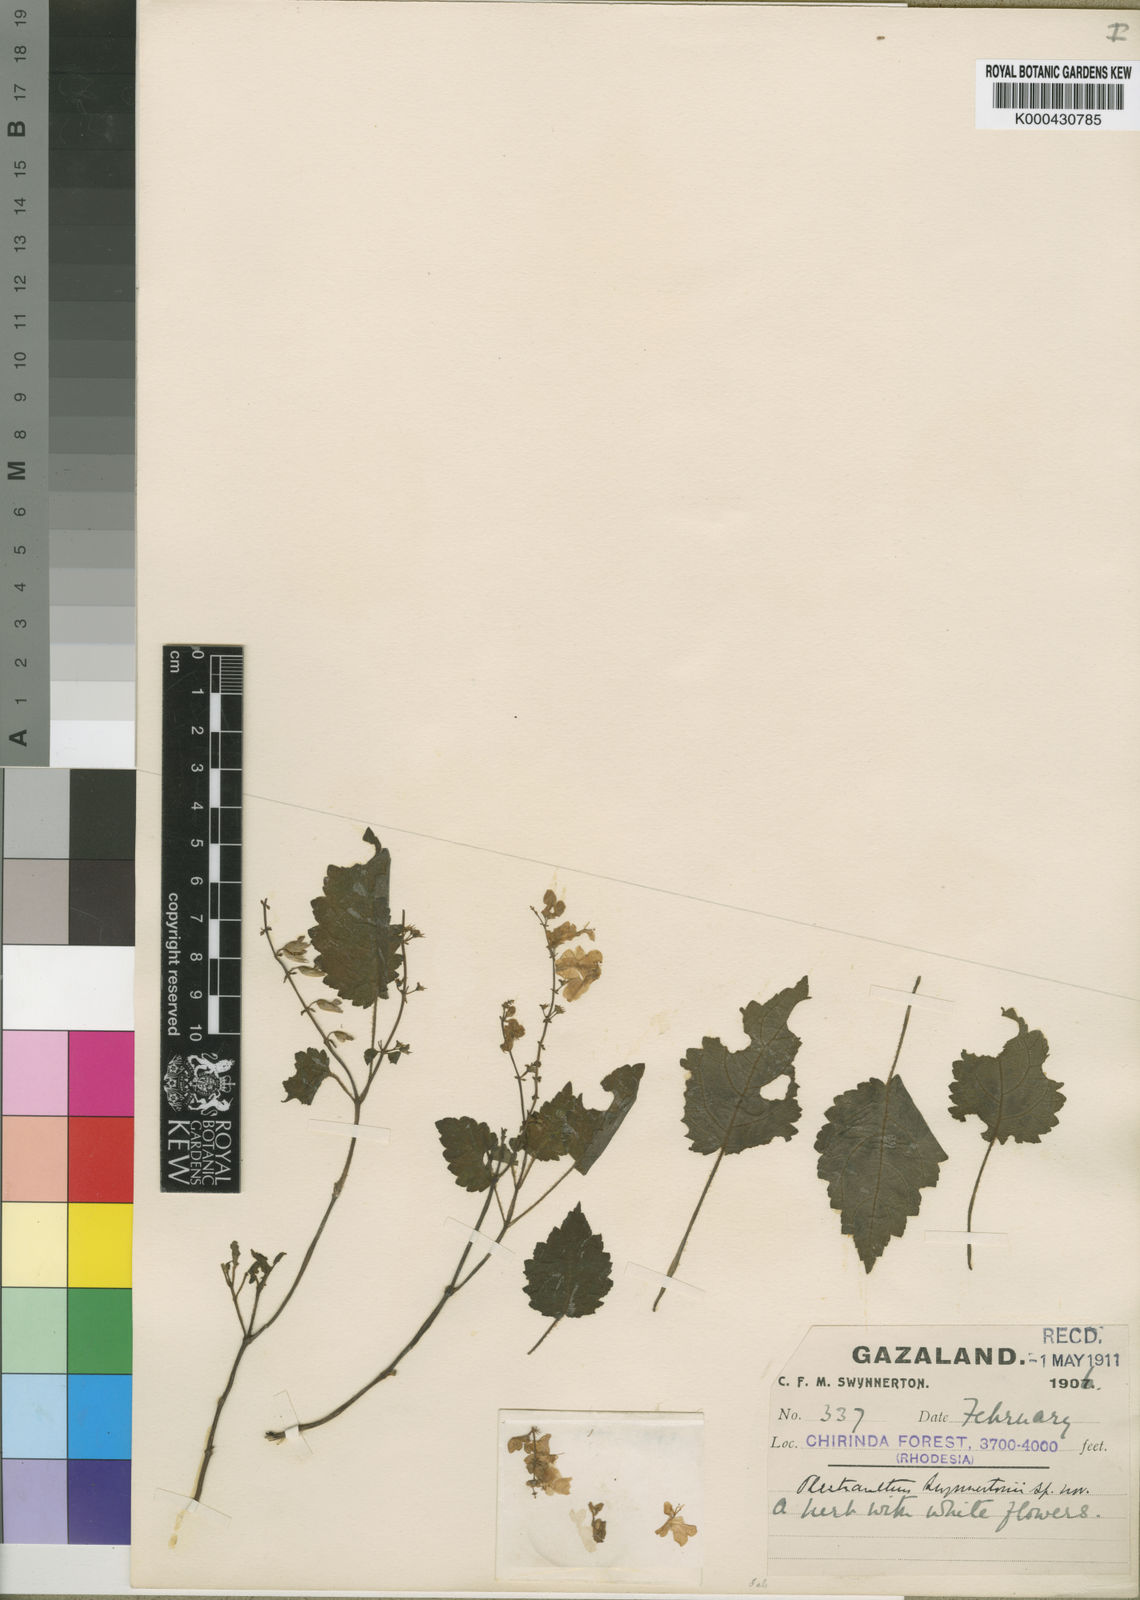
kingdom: Plantae
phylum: Tracheophyta
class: Magnoliopsida
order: Lamiales
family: Lamiaceae
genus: Plectranthus
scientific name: Plectranthus swynnertonii
